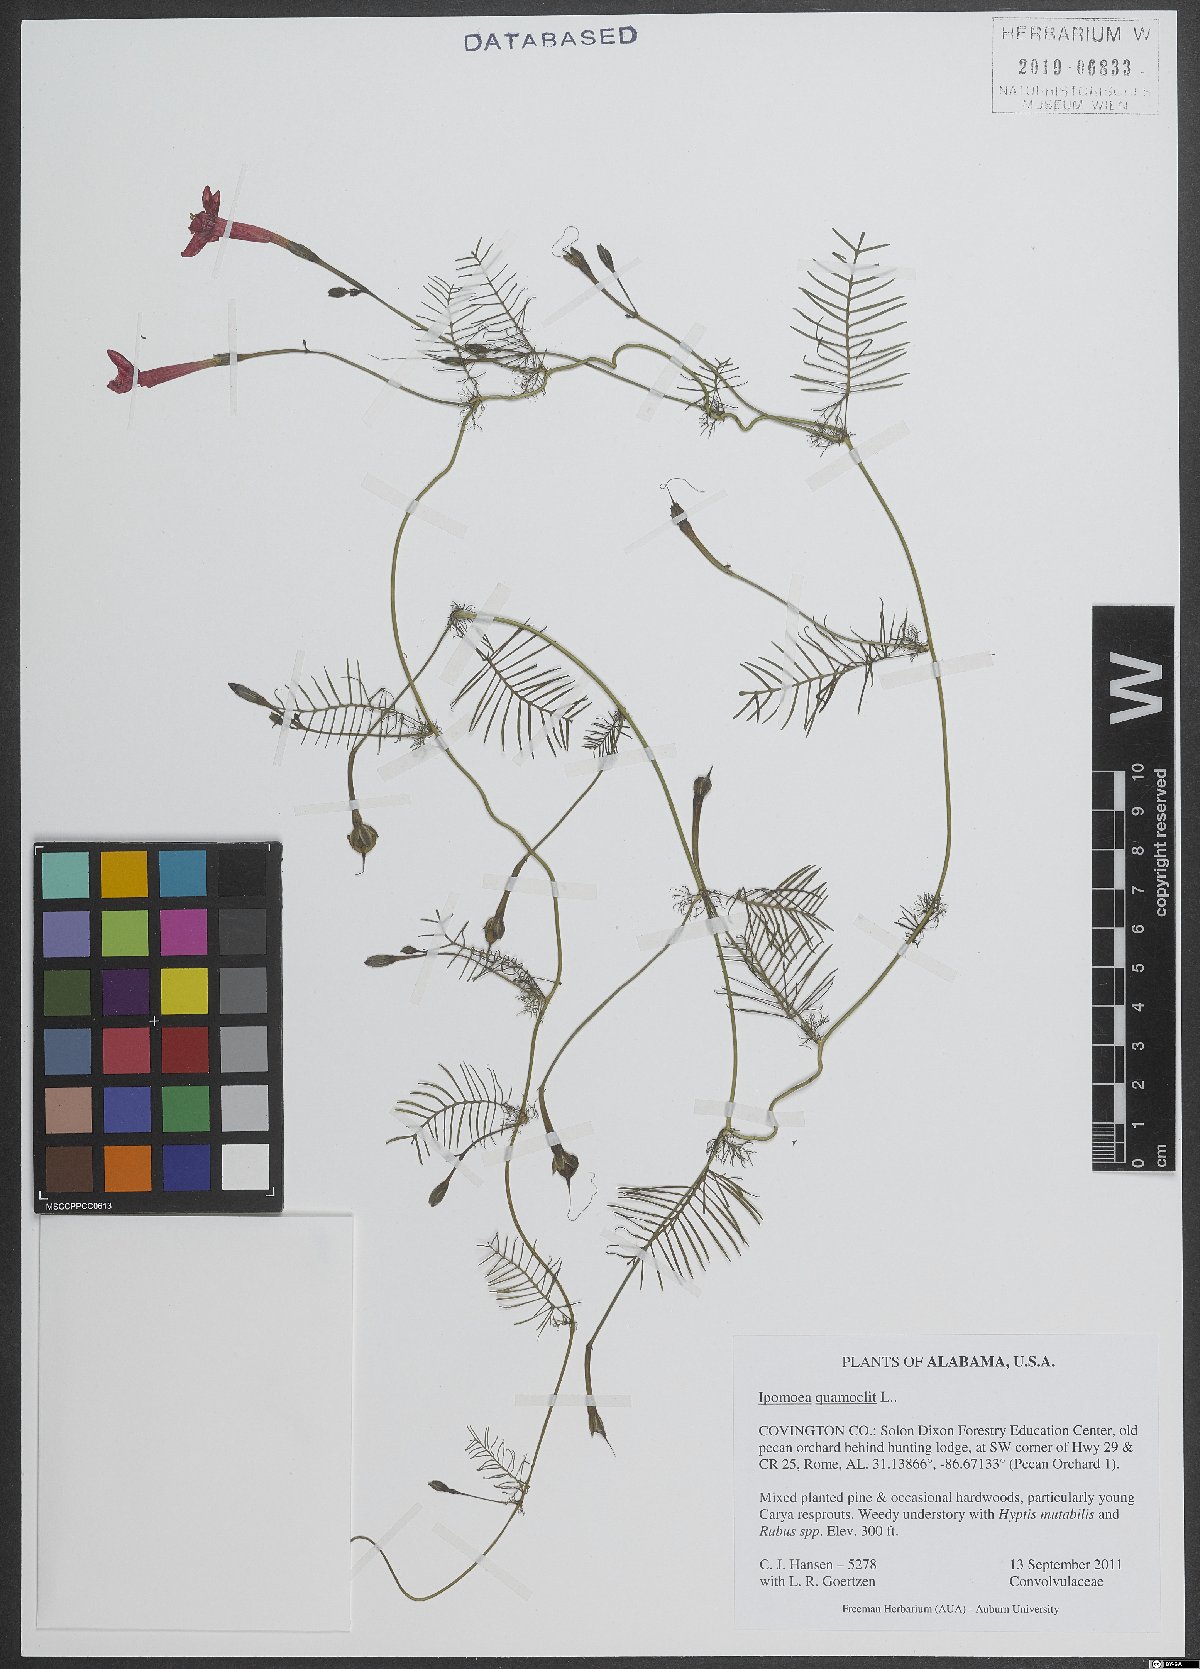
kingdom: Plantae
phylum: Tracheophyta
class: Magnoliopsida
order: Solanales
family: Convolvulaceae
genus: Ipomoea
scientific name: Ipomoea quamoclit
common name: Cypress vine
